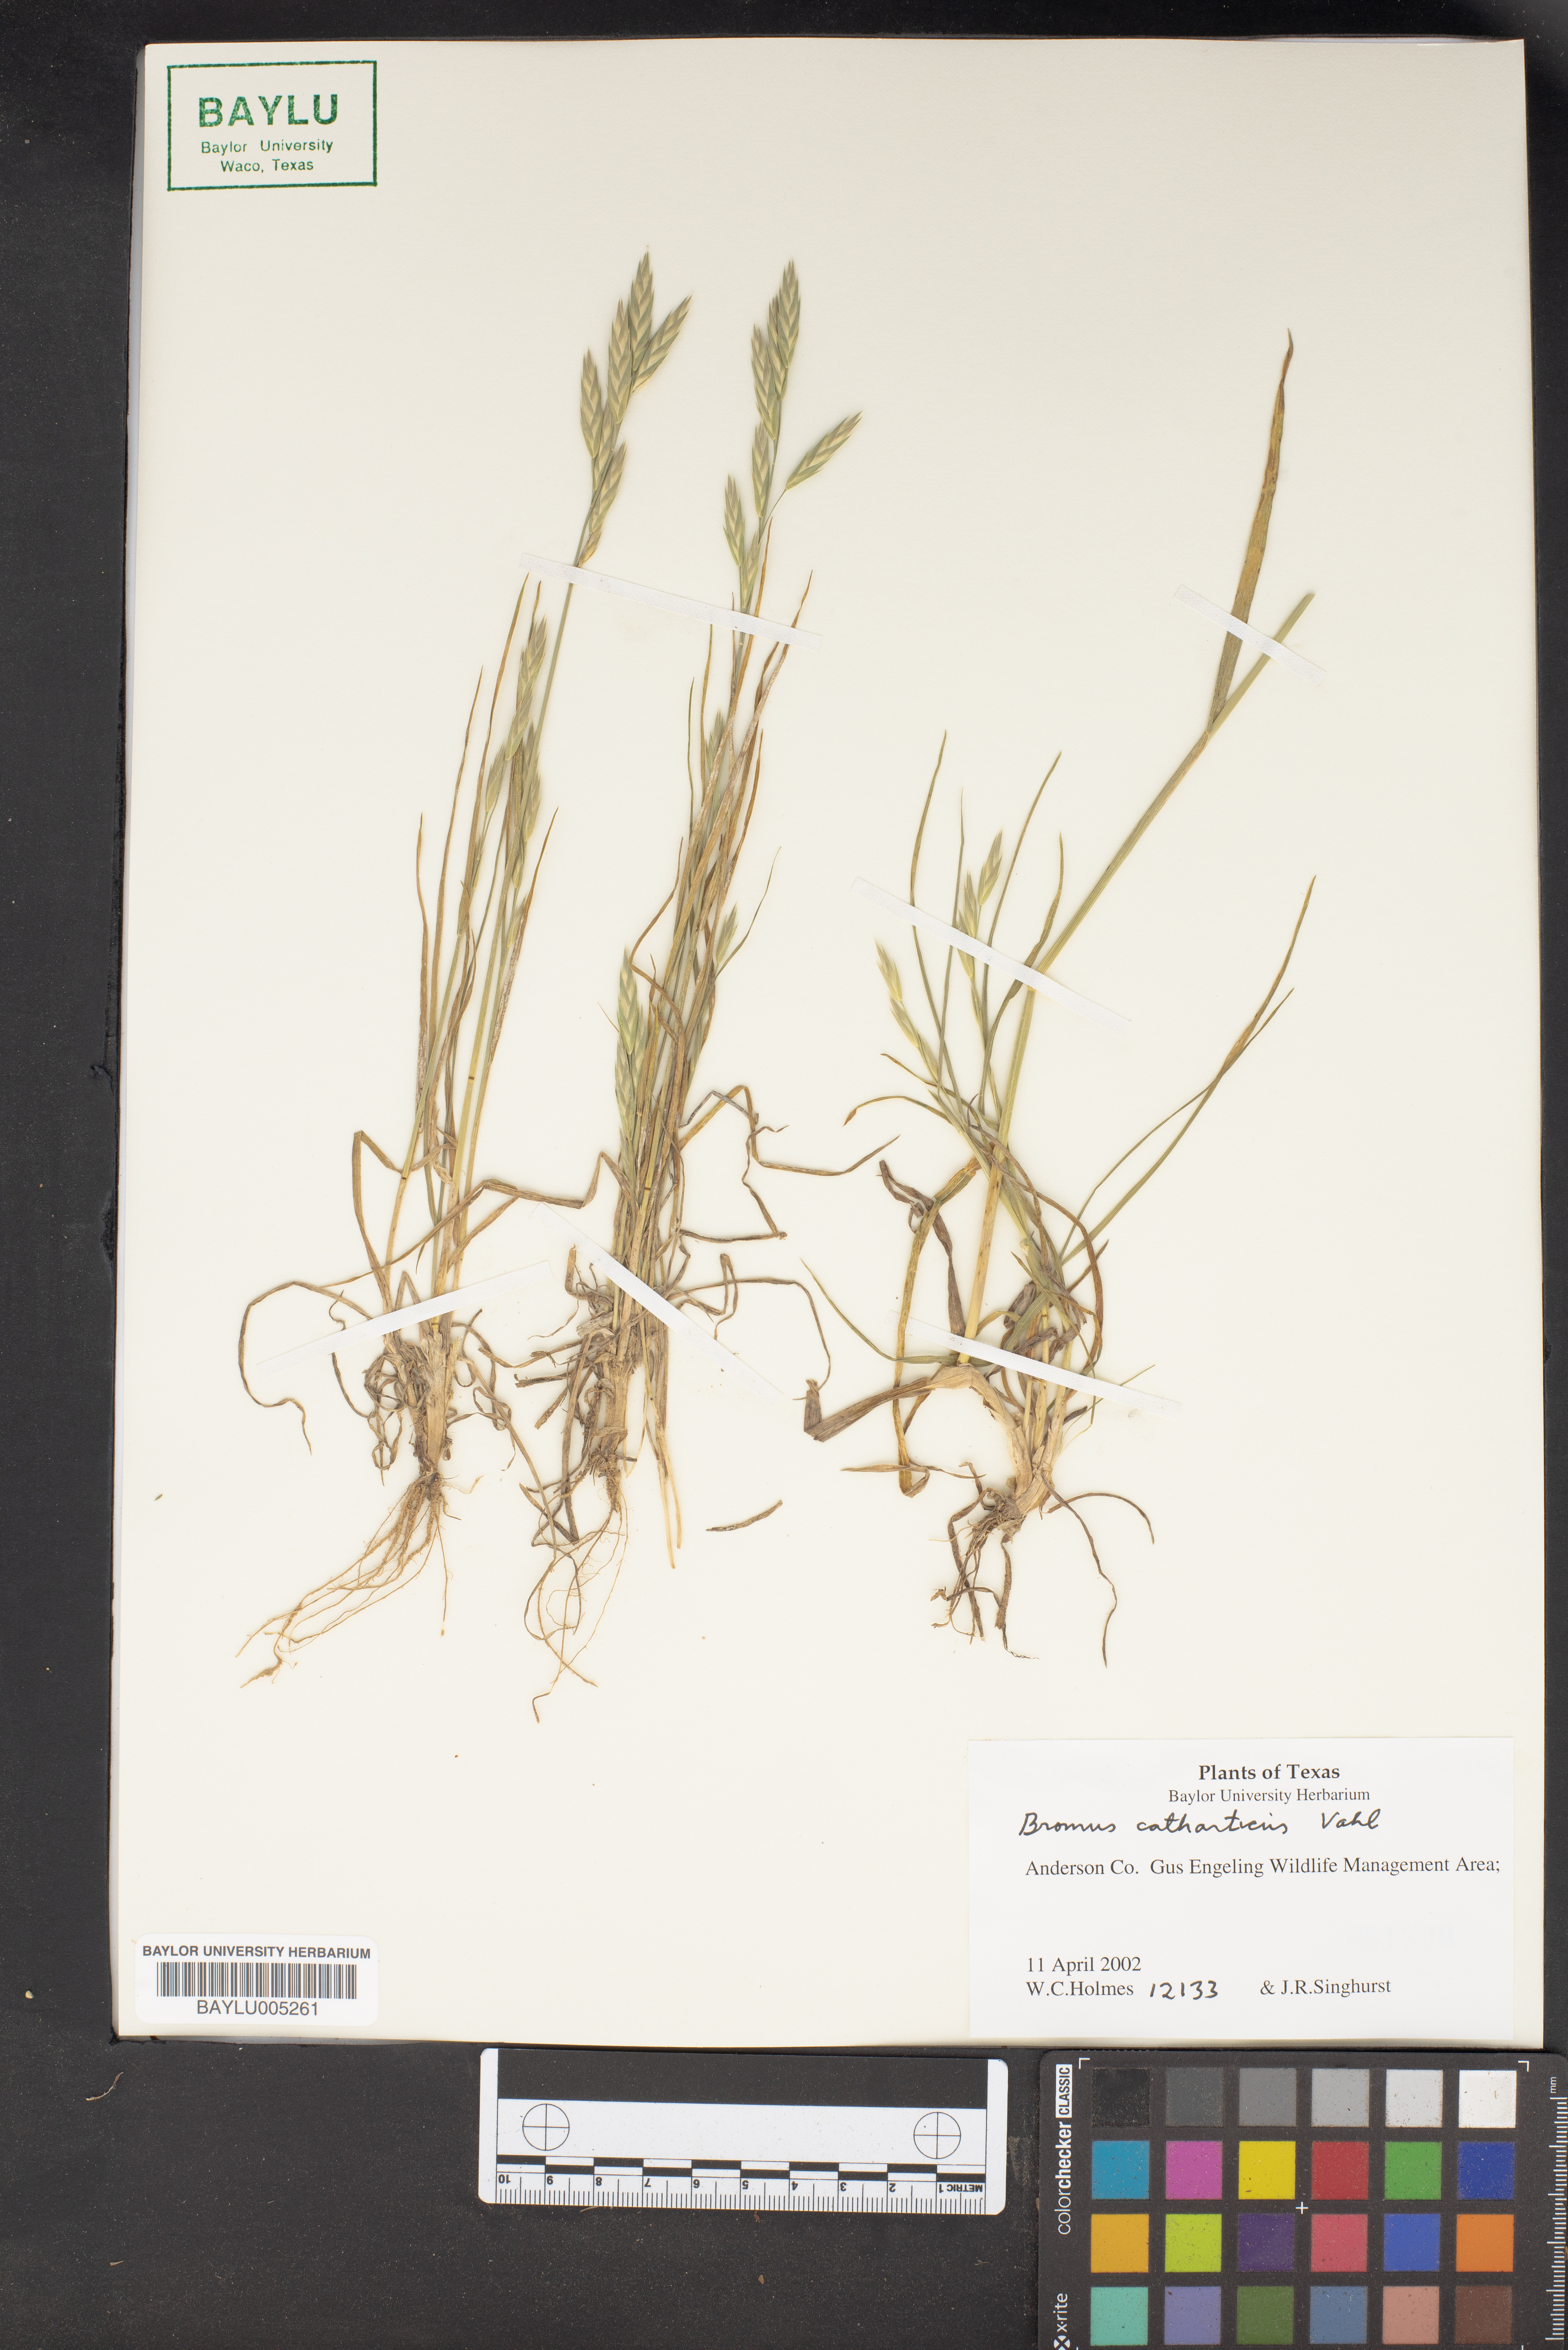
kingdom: Plantae
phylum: Tracheophyta
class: Liliopsida
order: Poales
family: Poaceae
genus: Bromus
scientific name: Bromus catharticus
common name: Rescuegrass
